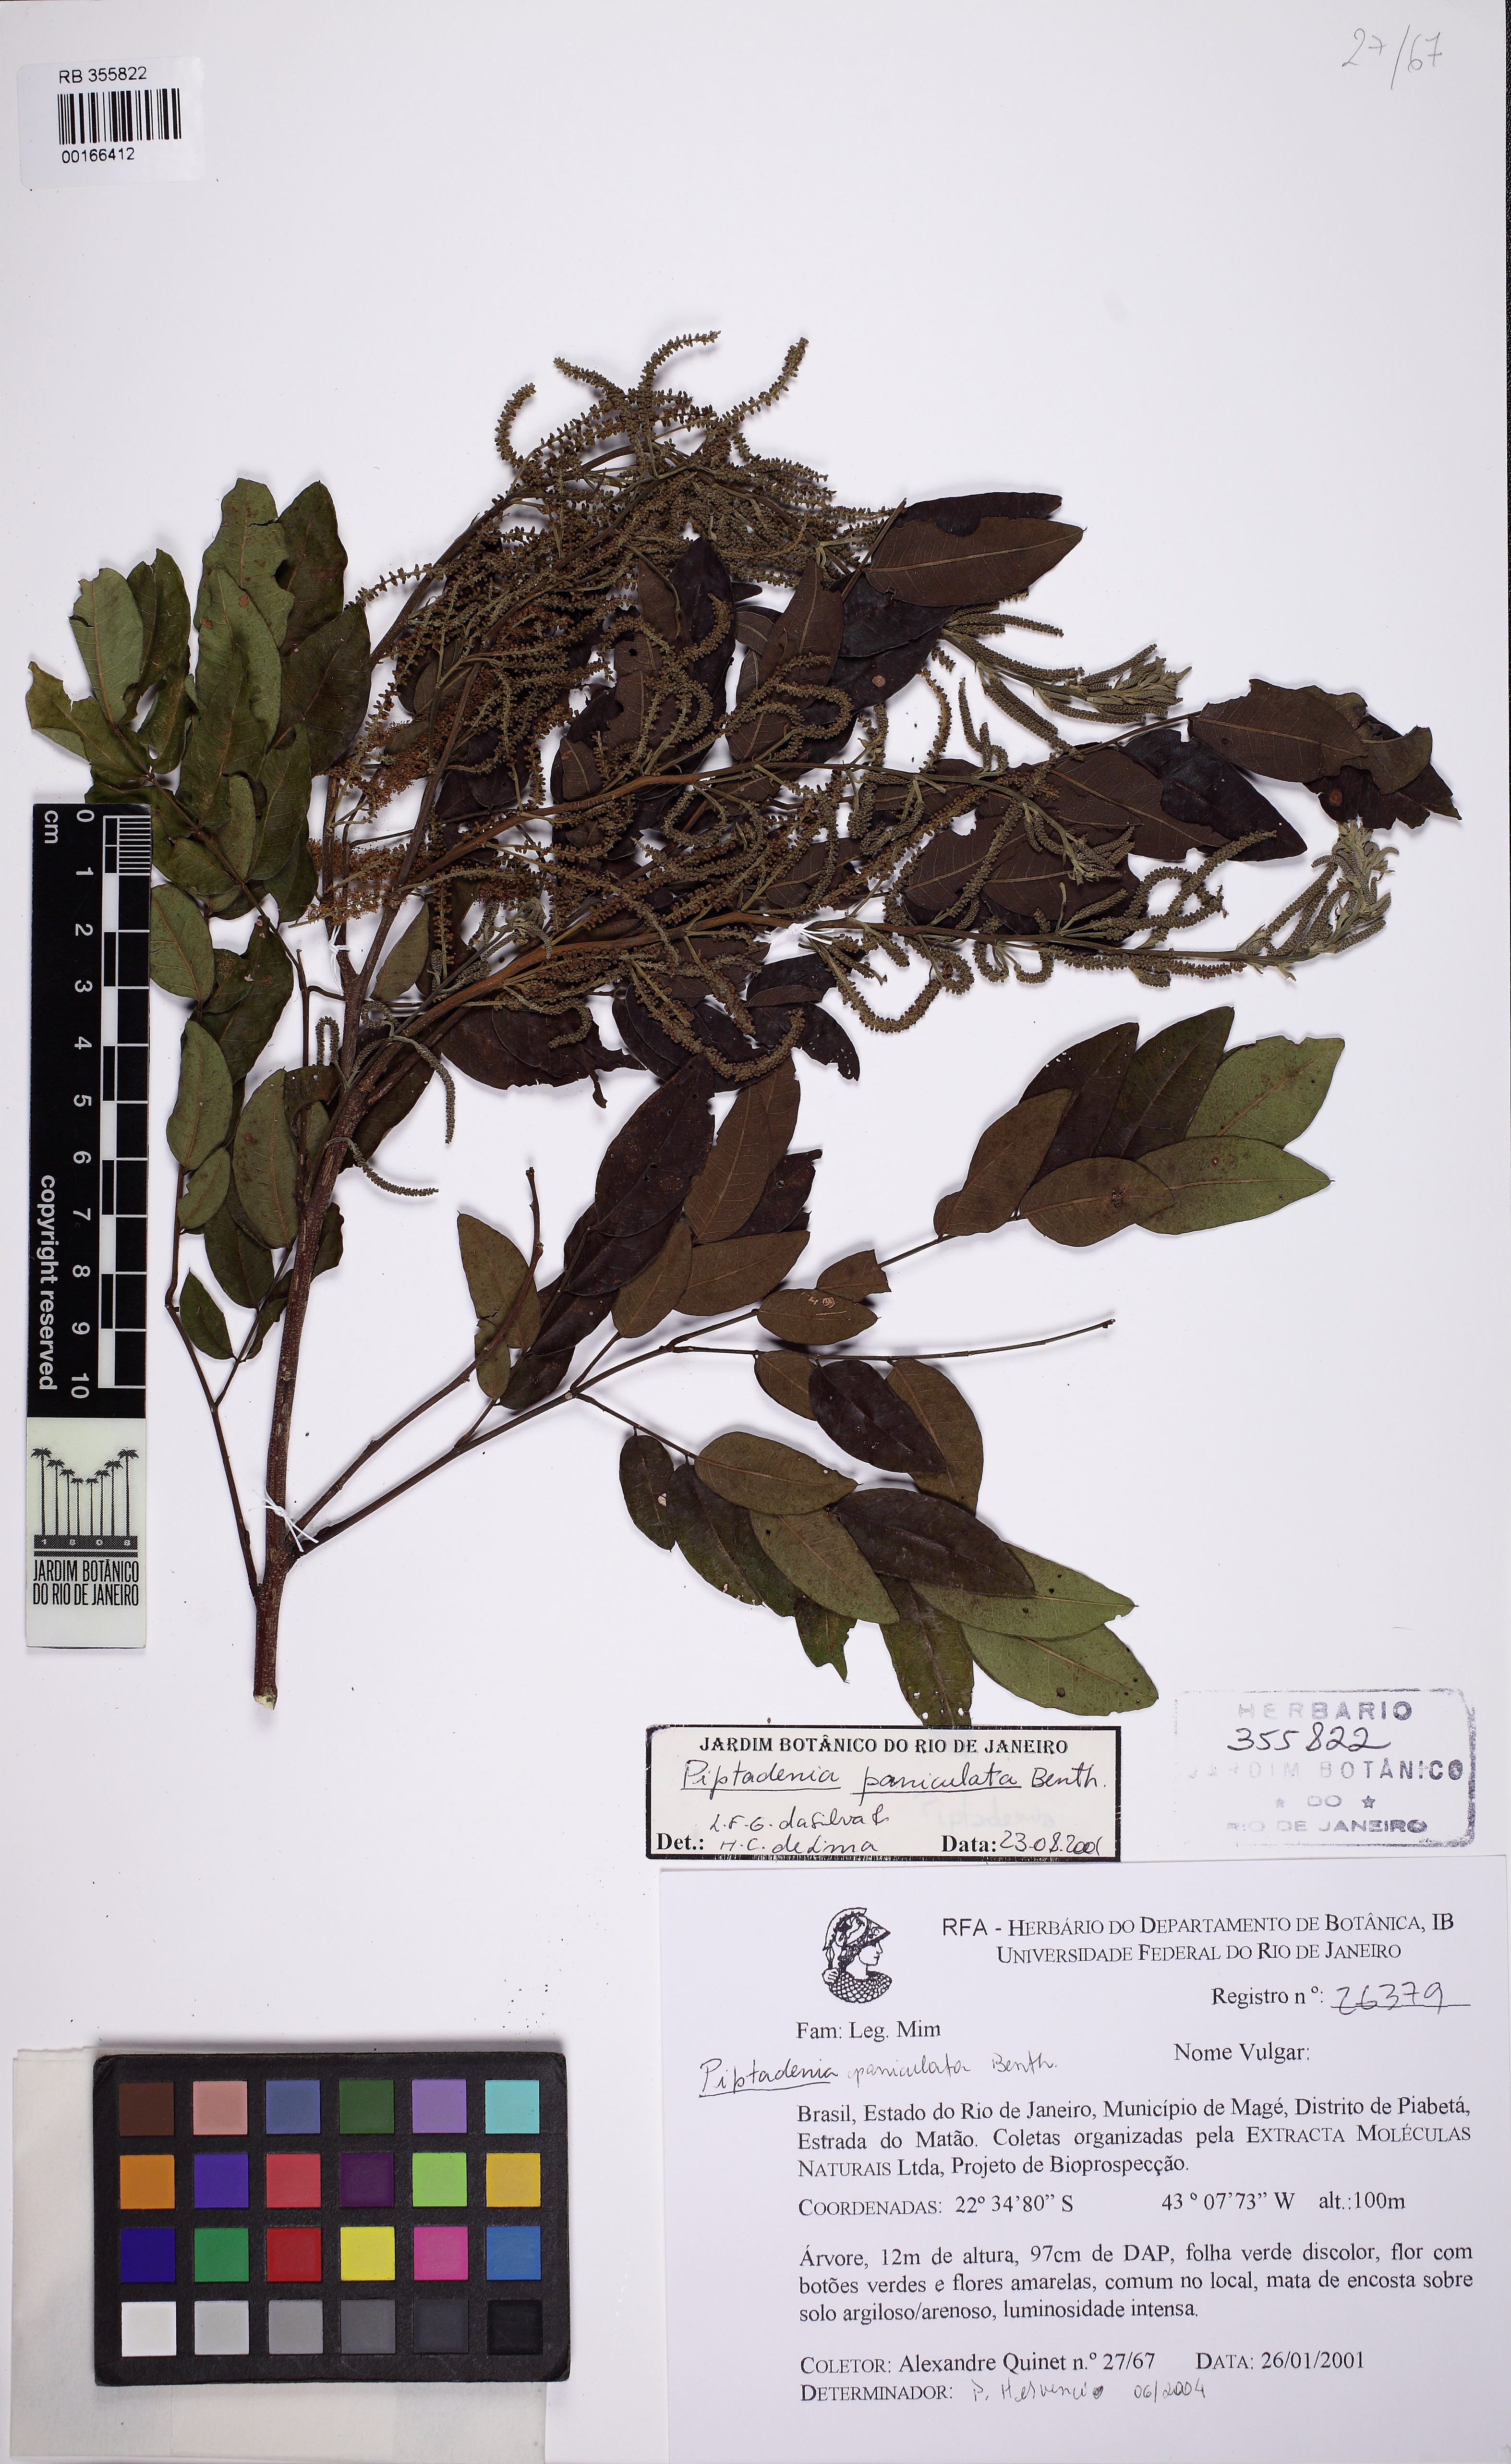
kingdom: Plantae
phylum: Tracheophyta
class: Magnoliopsida
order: Fabales
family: Fabaceae
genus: Piptadenia
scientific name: Piptadenia paniculata
